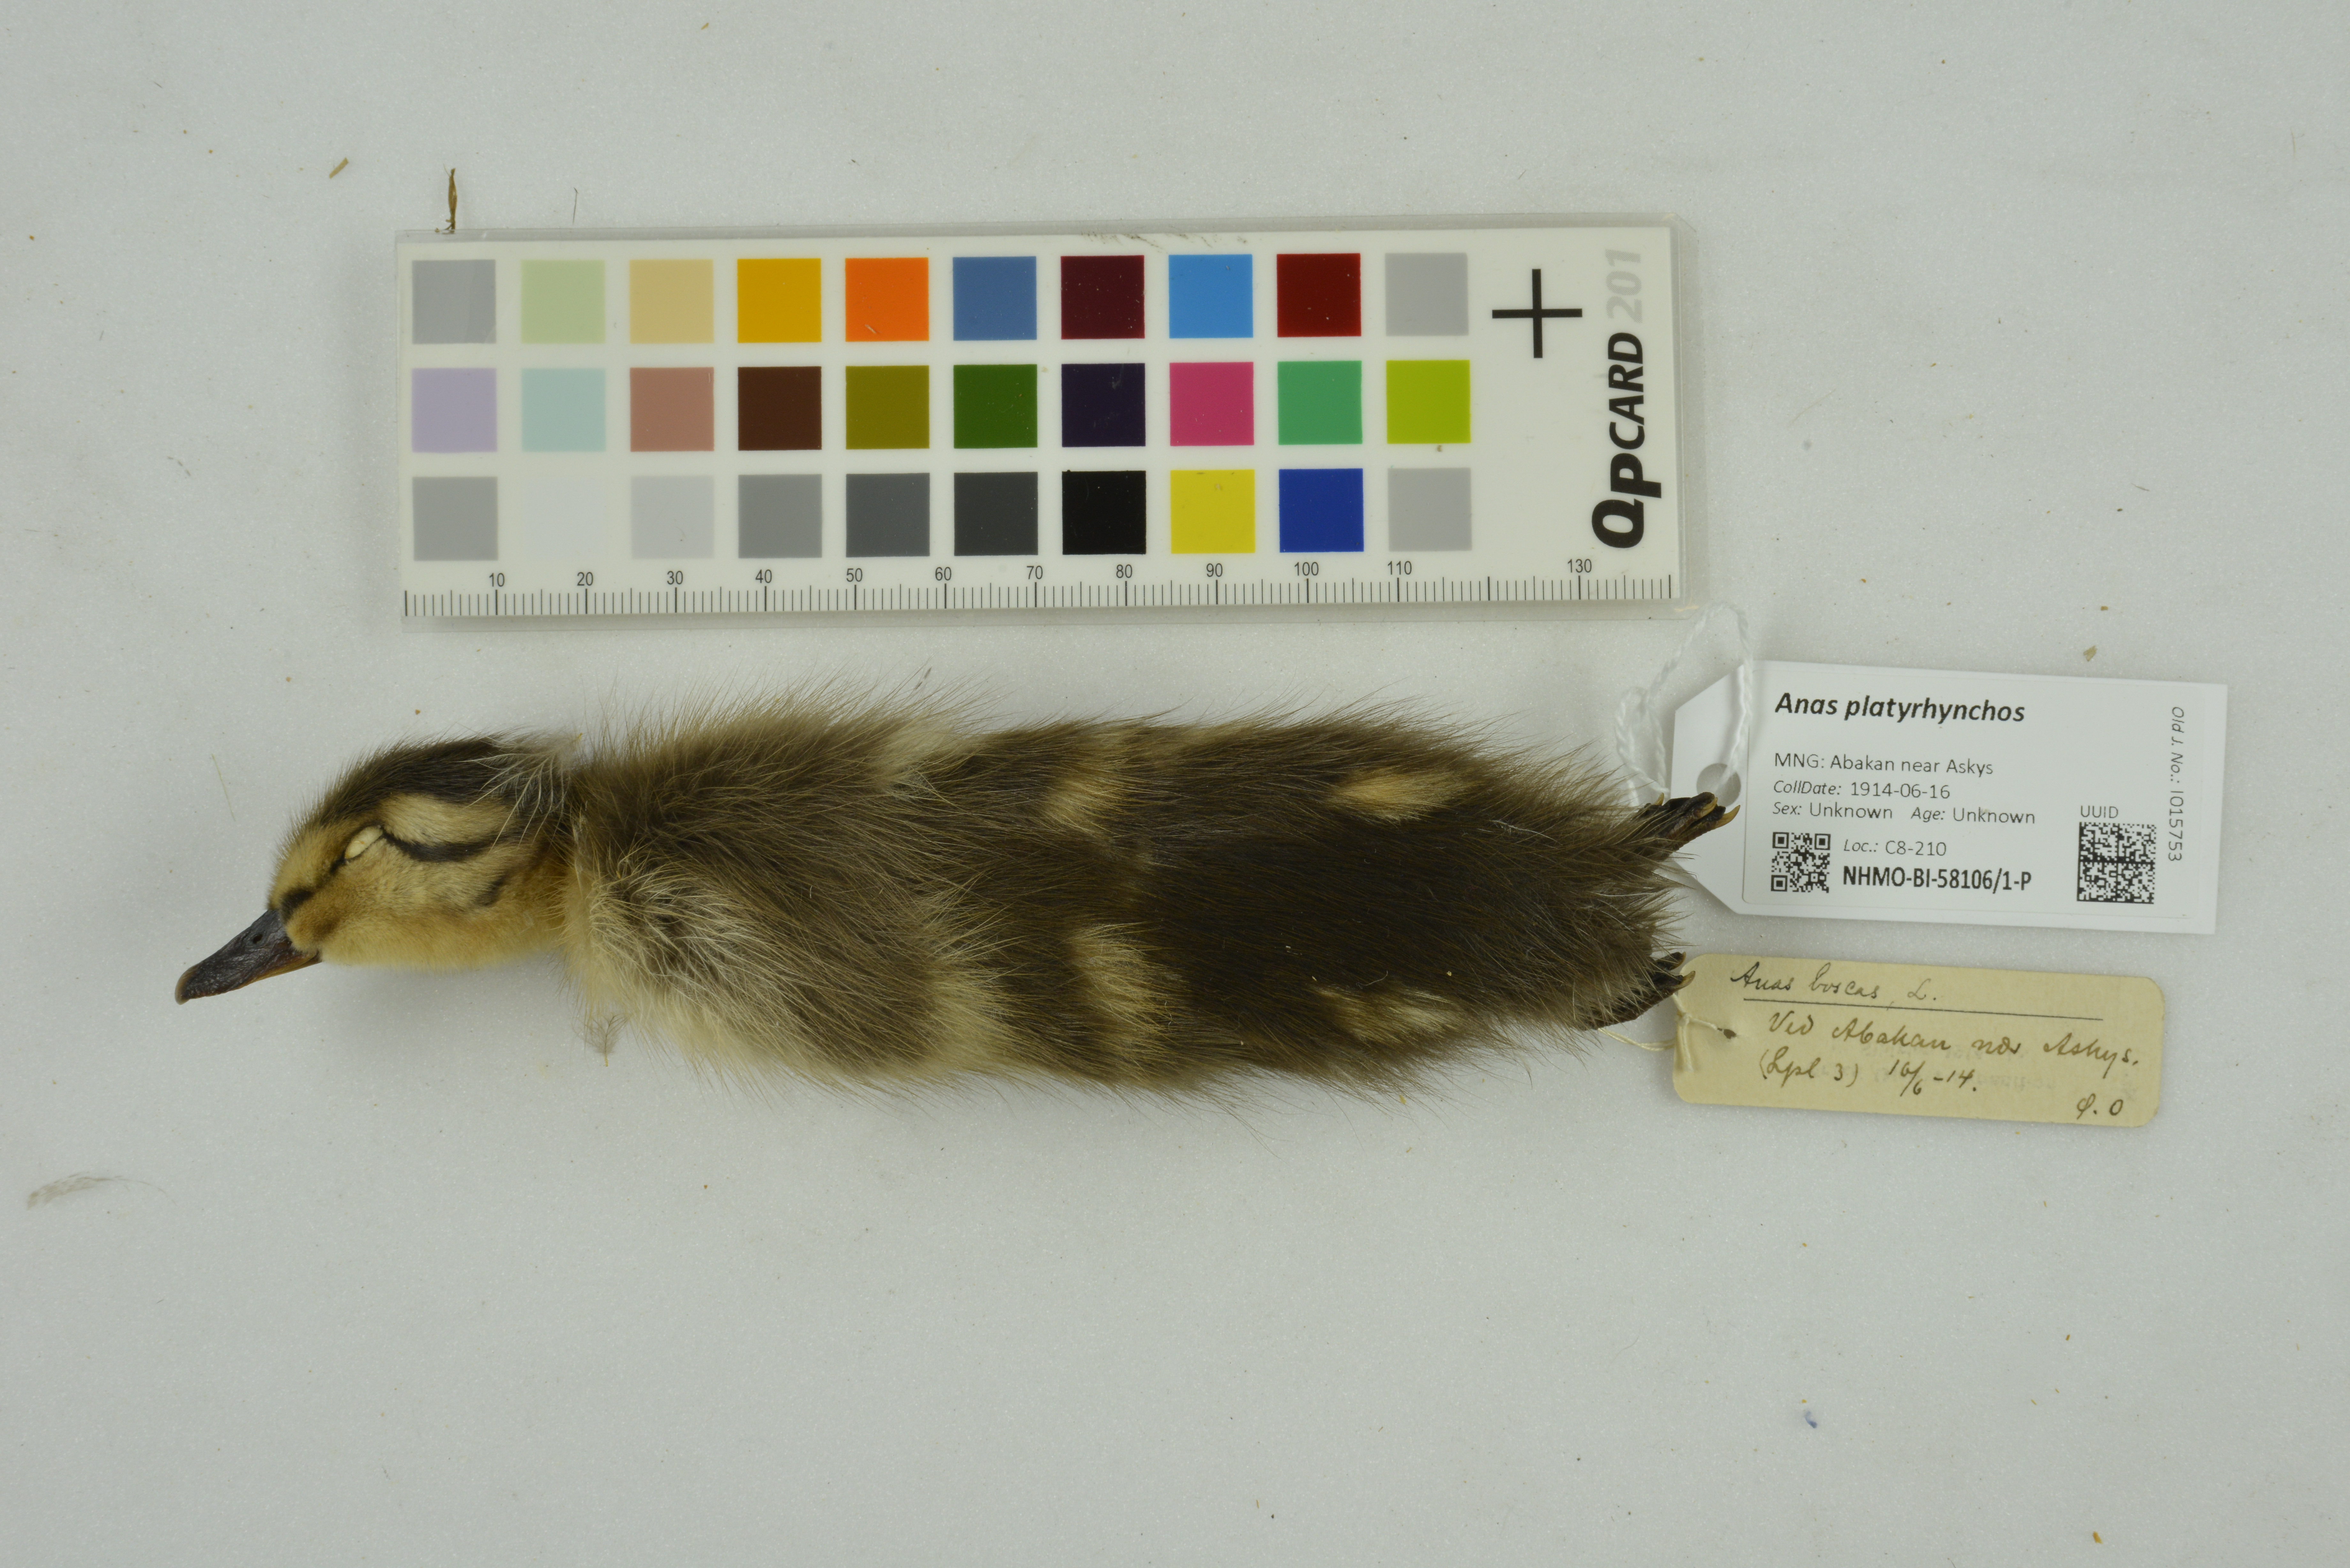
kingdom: Animalia
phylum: Chordata
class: Aves
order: Anseriformes
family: Anatidae
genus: Anas
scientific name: Anas platyrhynchos
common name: Mallard
